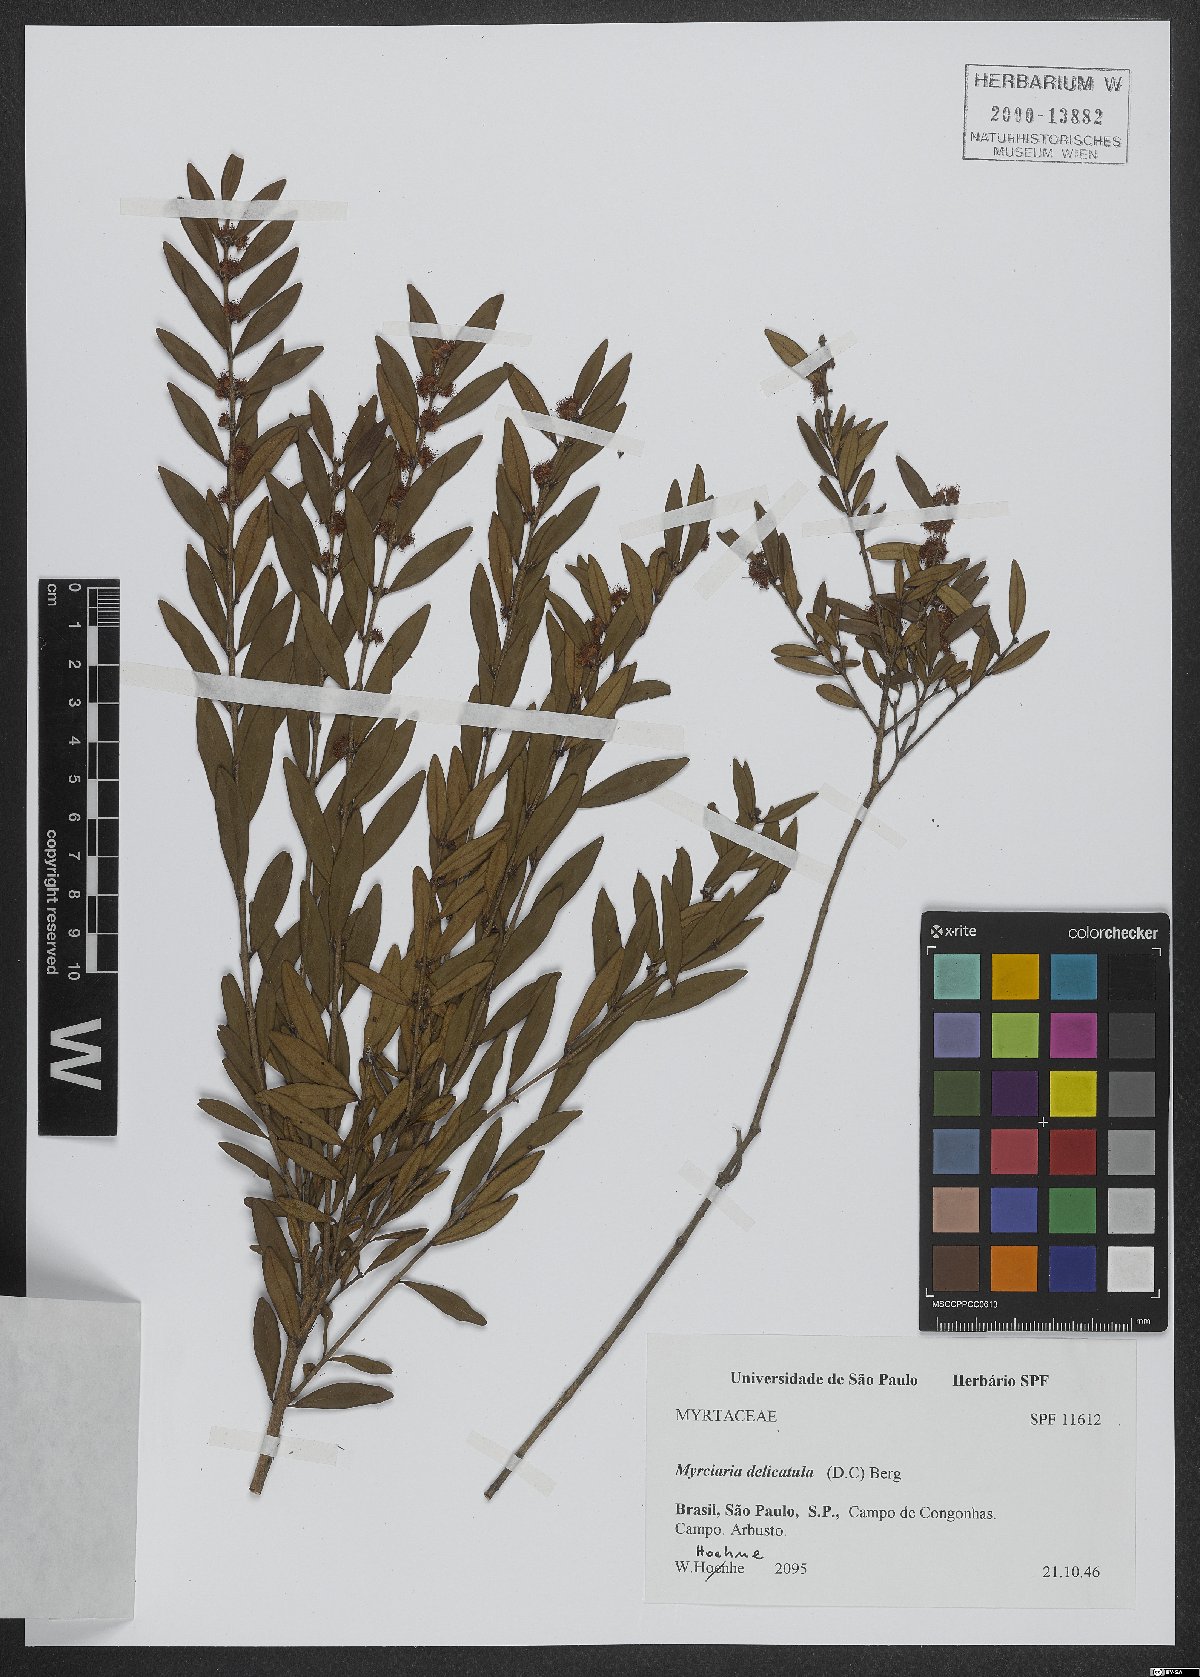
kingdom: Plantae
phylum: Tracheophyta
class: Magnoliopsida
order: Myrtales
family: Myrtaceae
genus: Myrciaria
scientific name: Myrciaria delicatula
